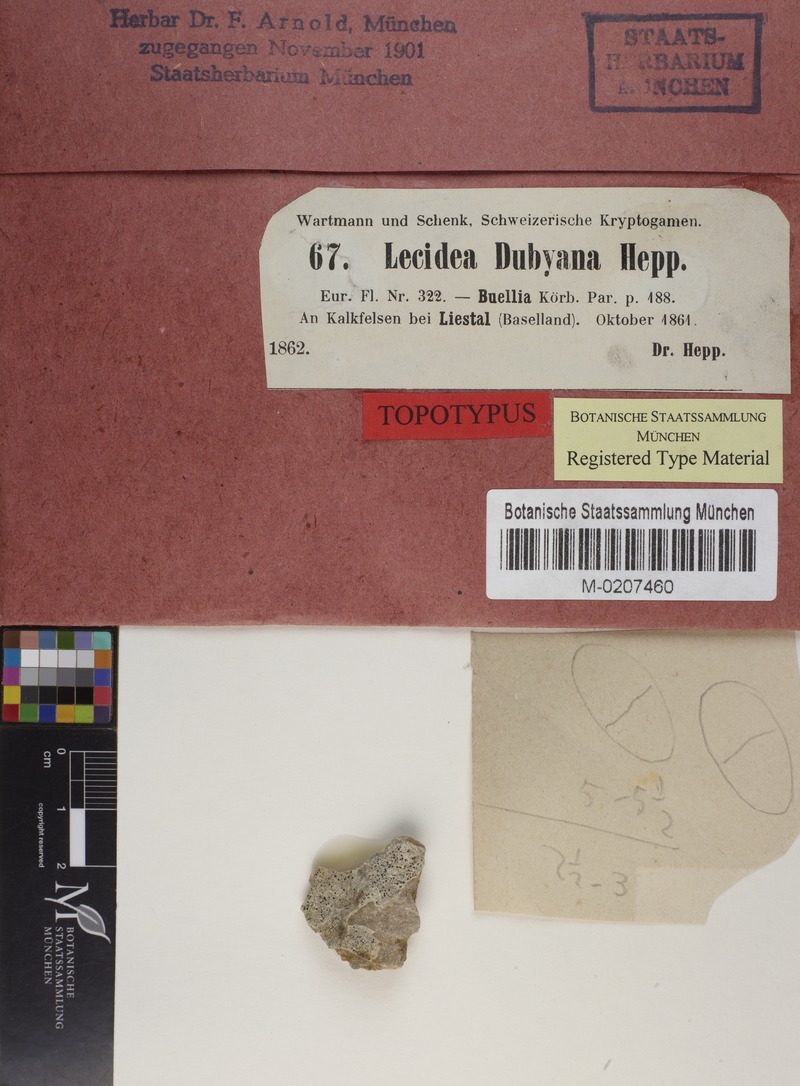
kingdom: Fungi
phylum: Ascomycota
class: Lecanoromycetes
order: Caliciales
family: Physciaceae
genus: Rinodina
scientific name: Rinodina dubyana
